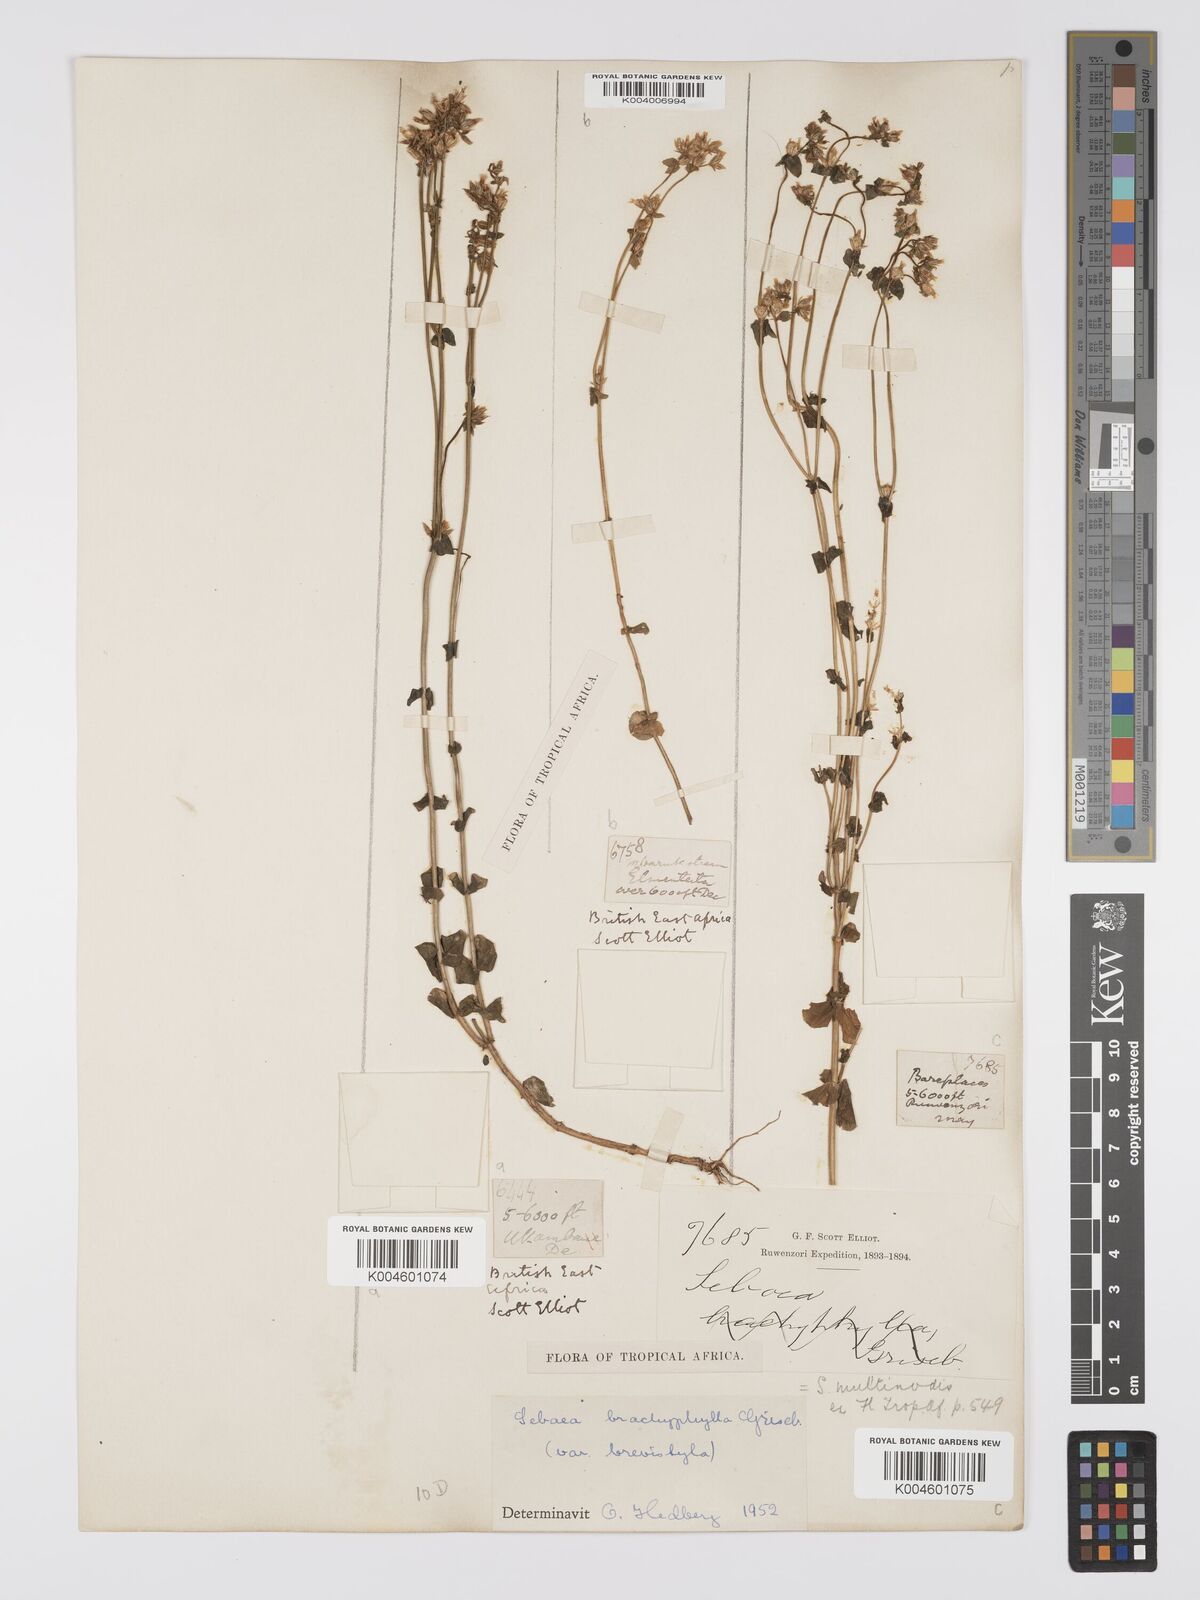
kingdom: Plantae
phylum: Tracheophyta
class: Magnoliopsida
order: Gentianales
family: Gentianaceae
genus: Sebaea
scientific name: Sebaea brachyphylla
